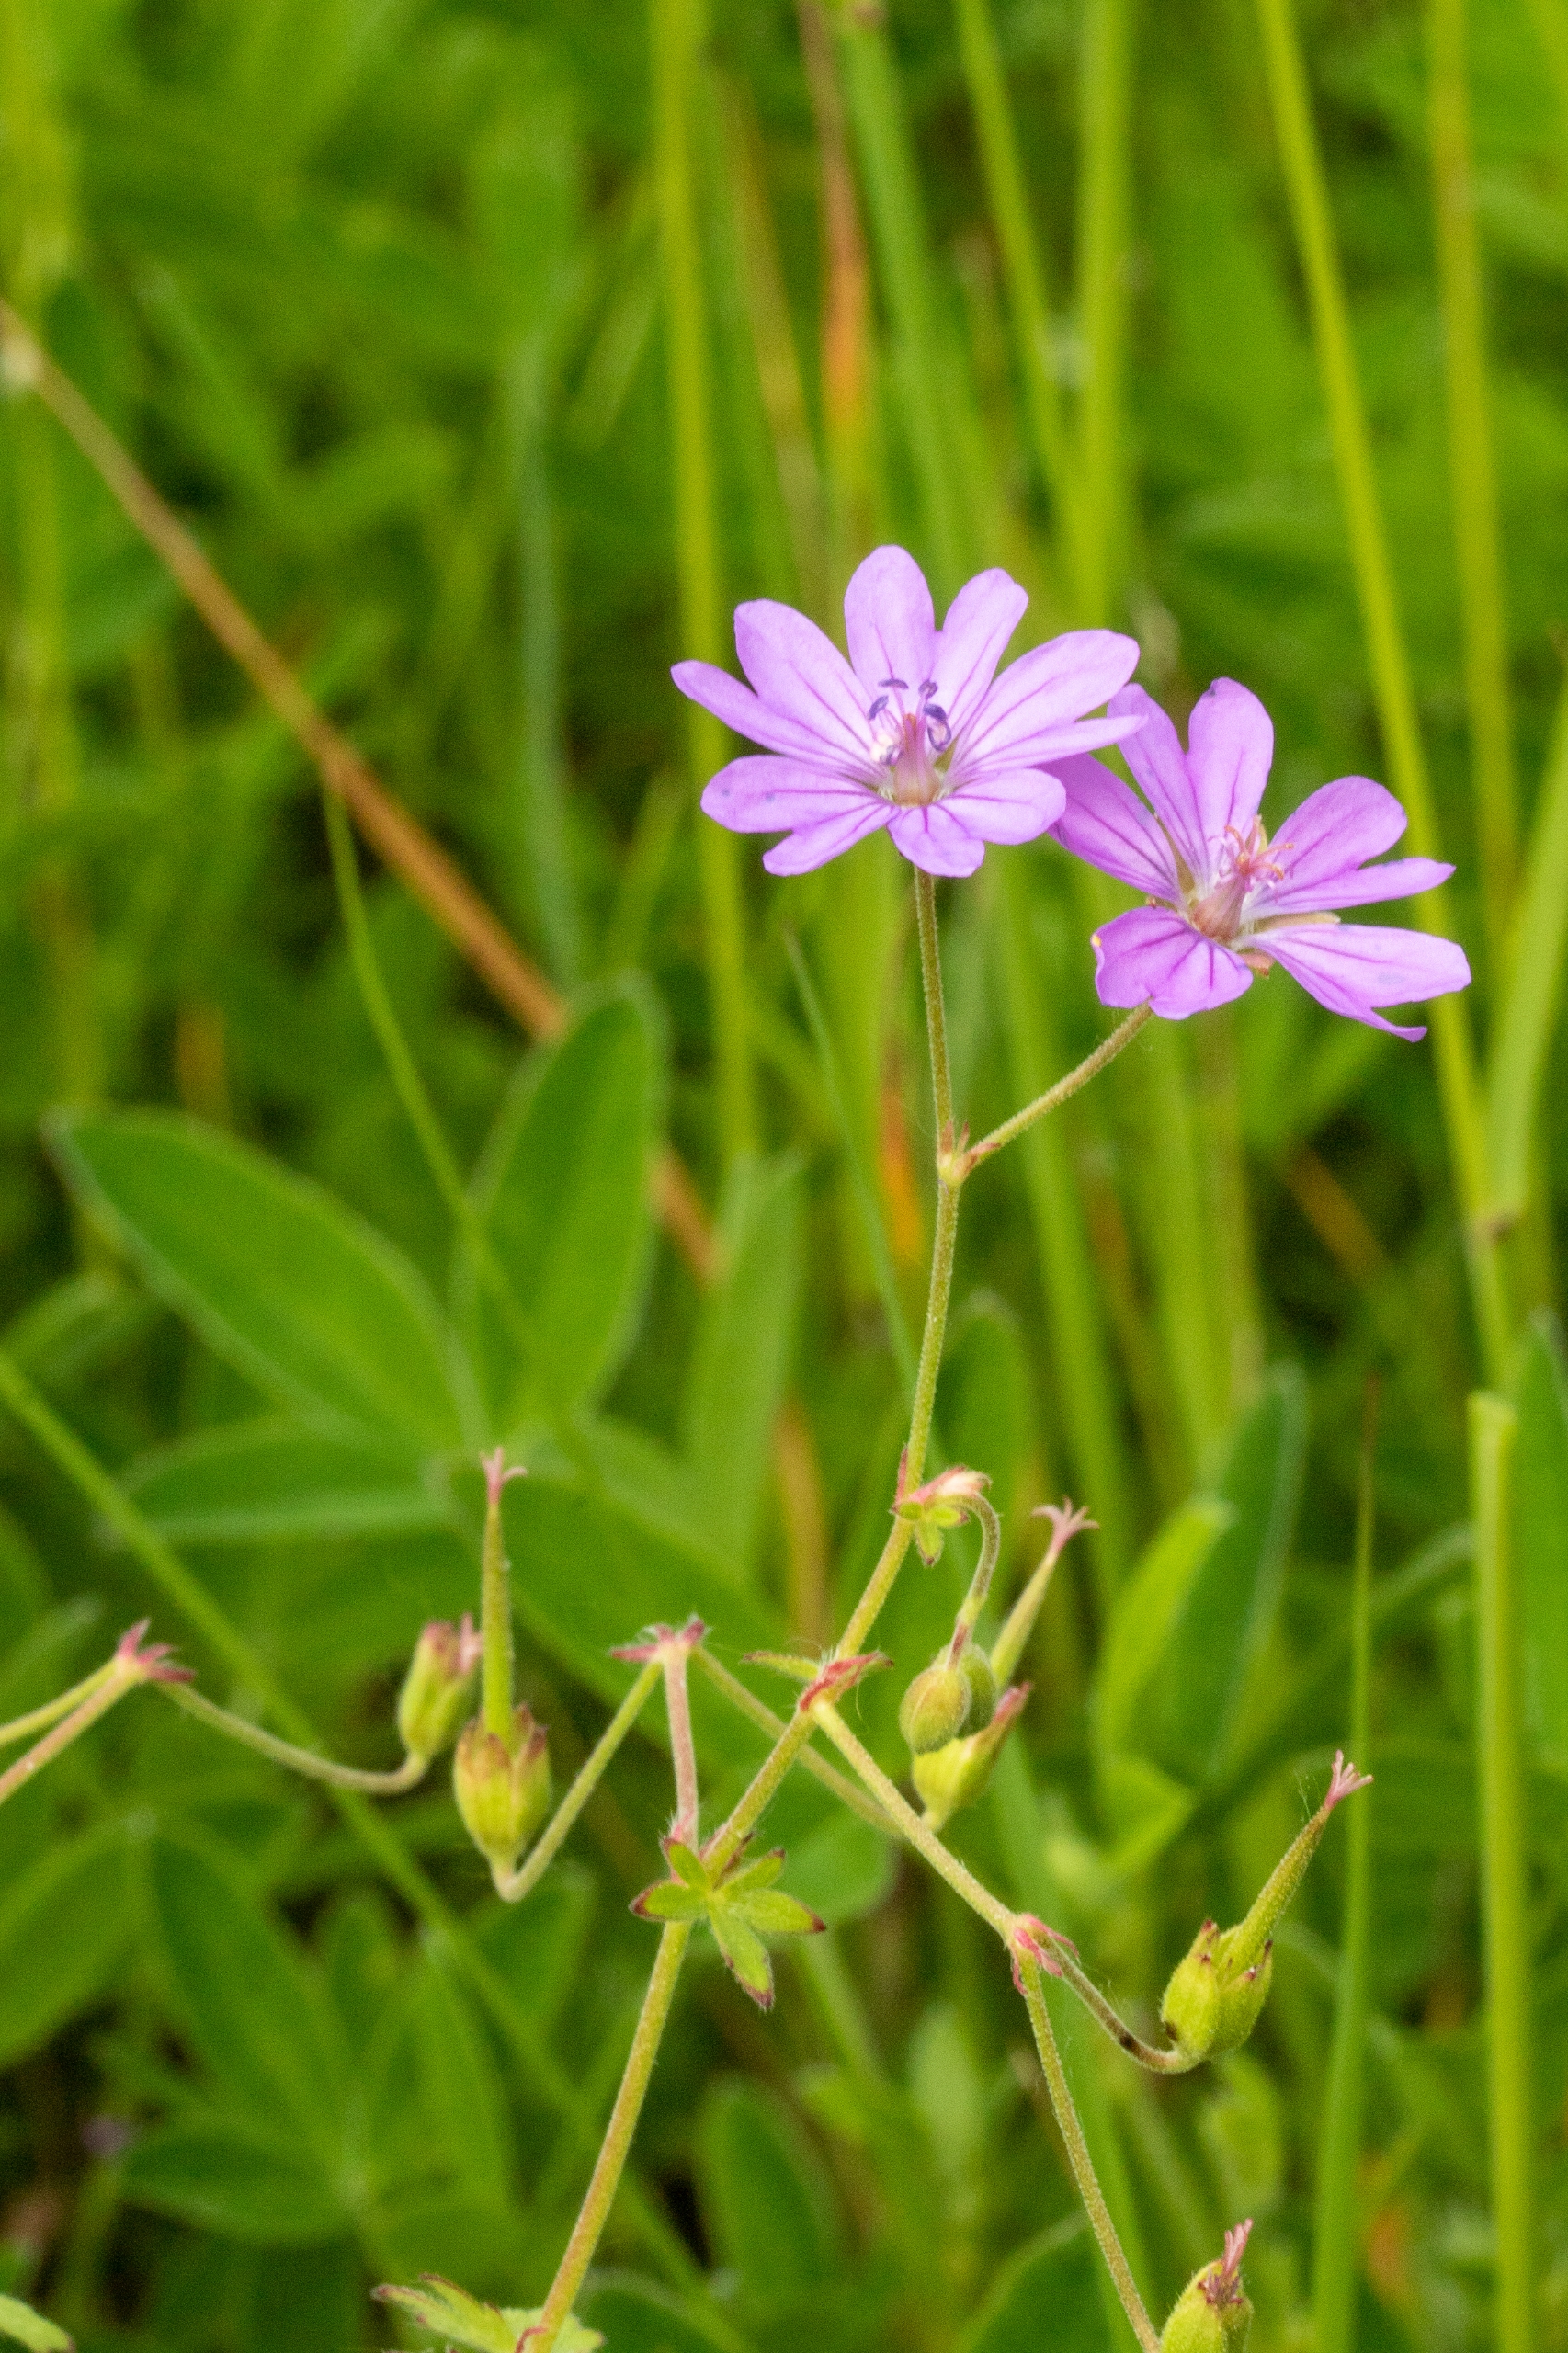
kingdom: Plantae
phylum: Tracheophyta
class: Magnoliopsida
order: Geraniales
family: Geraniaceae
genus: Geranium
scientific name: Geranium pyrenaicum
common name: Pyrenæisk storkenæb
